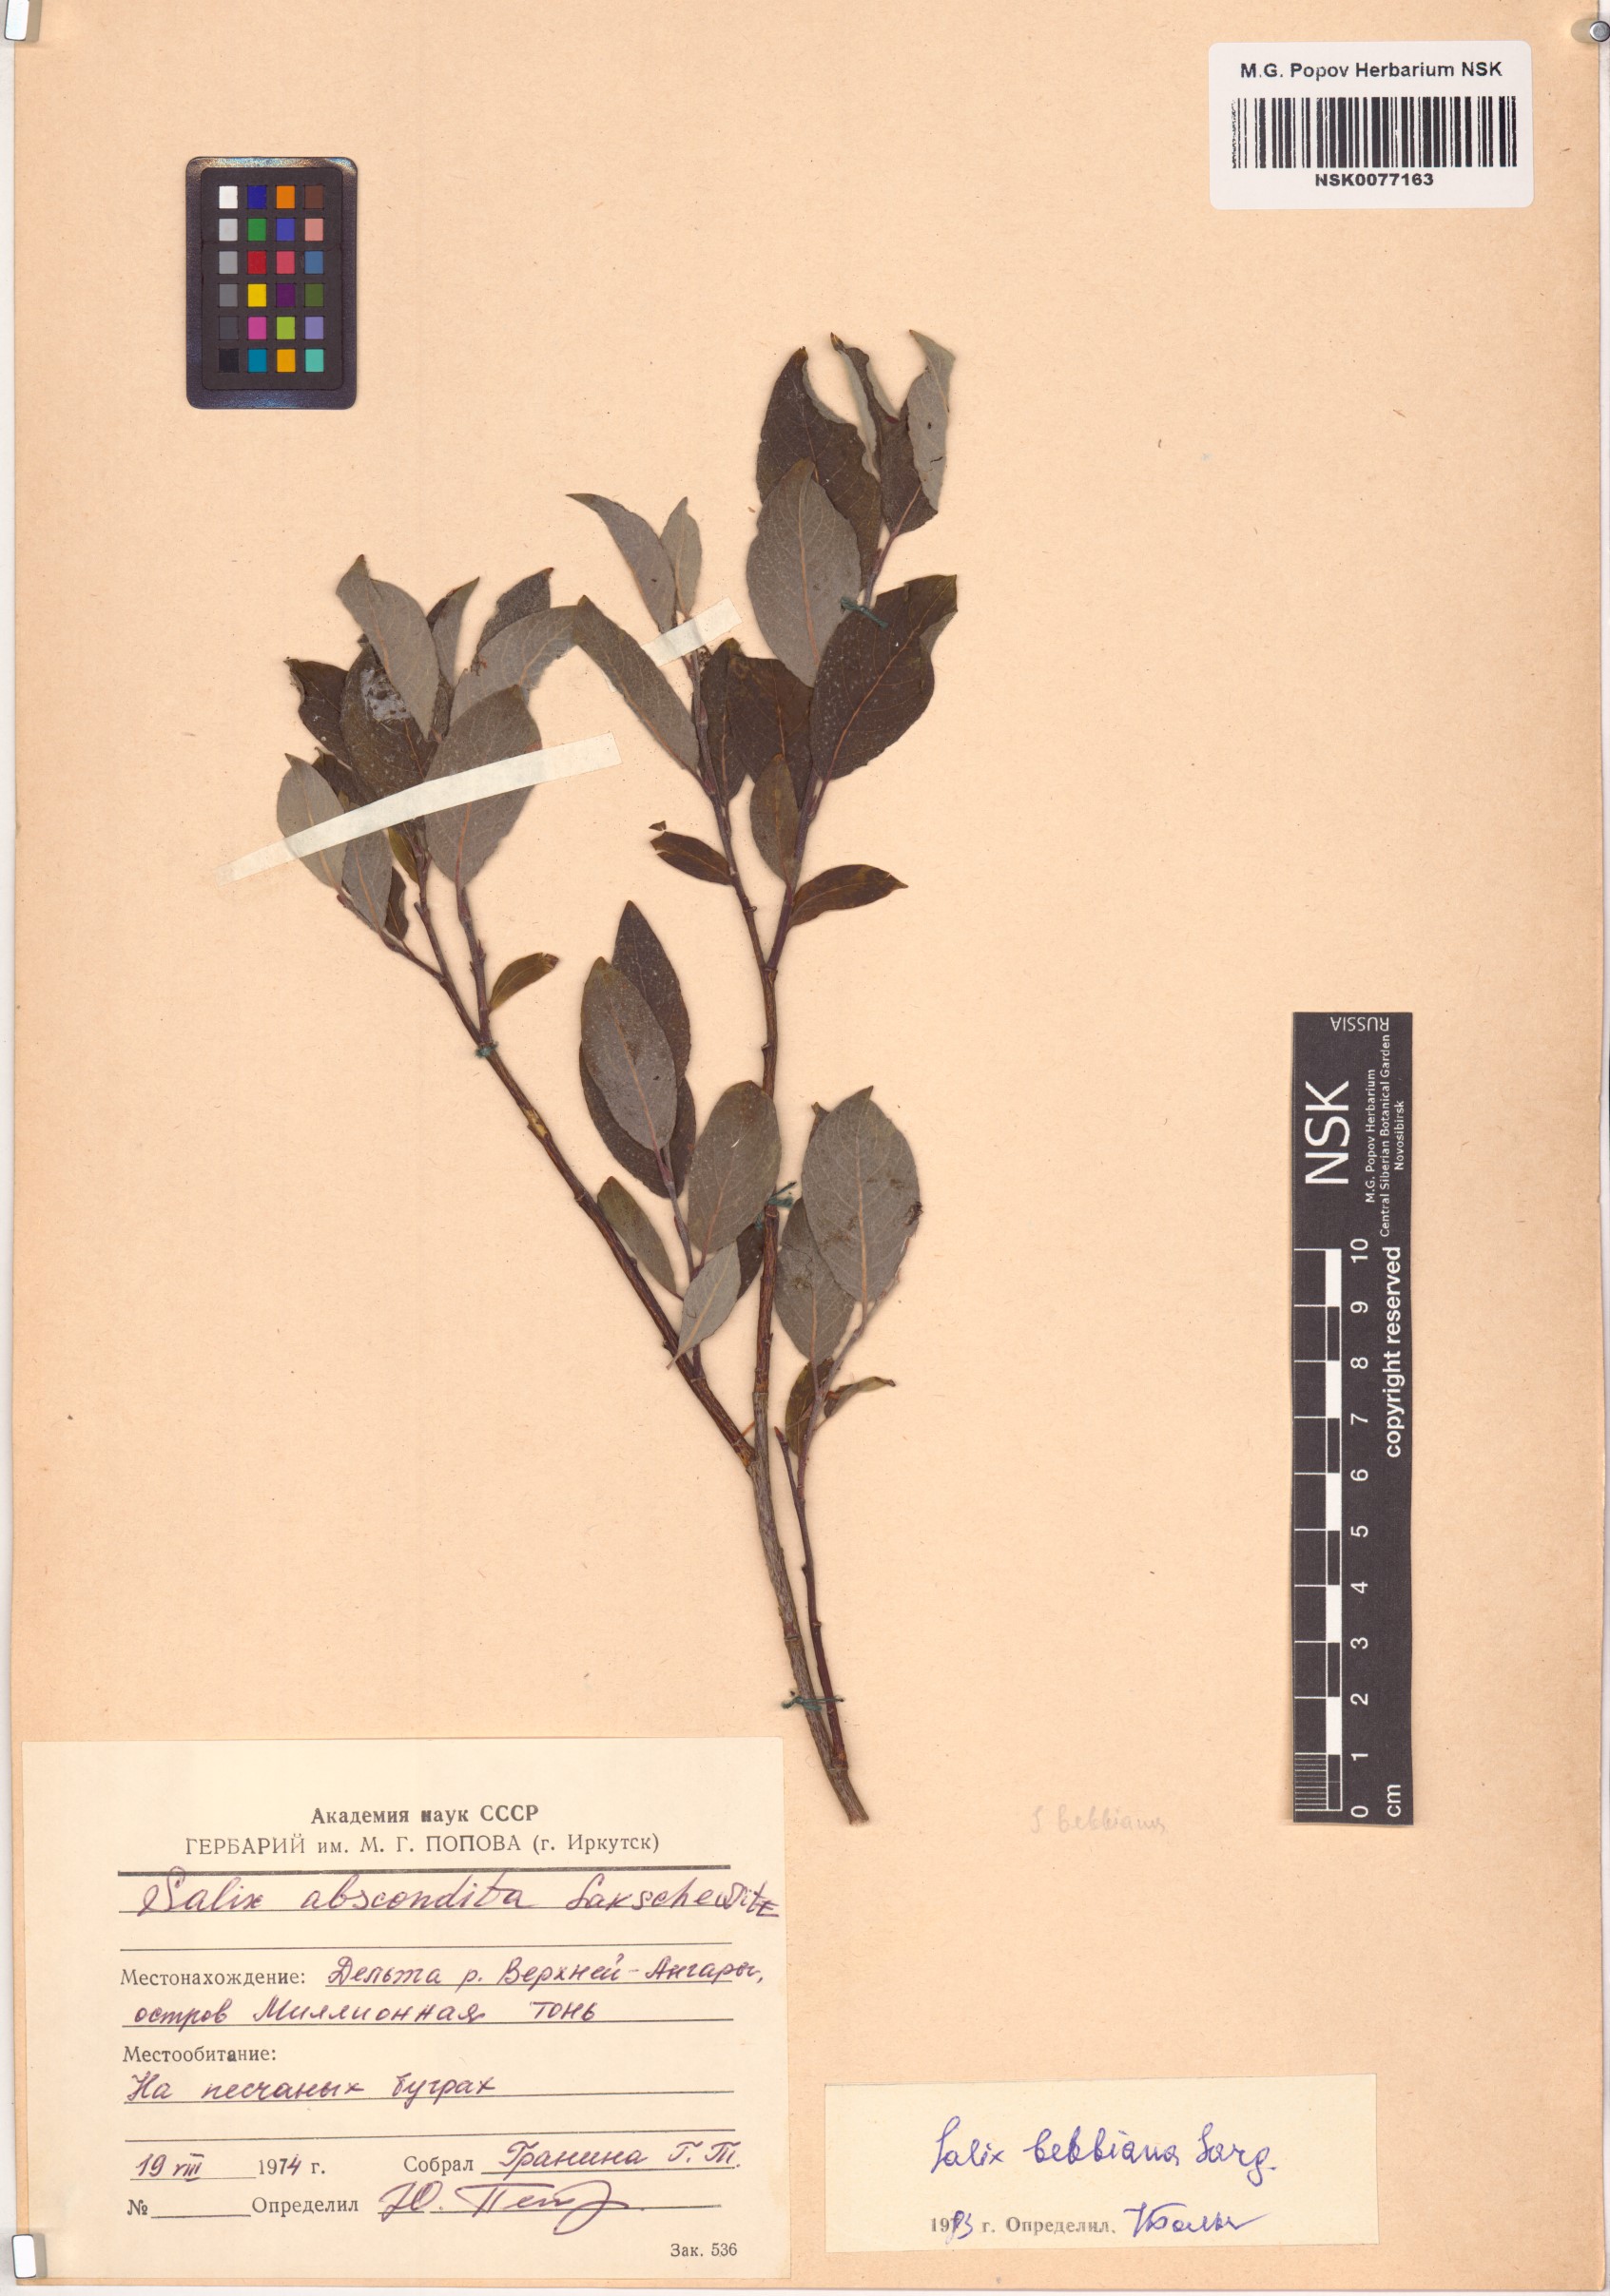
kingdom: Plantae
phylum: Tracheophyta
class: Magnoliopsida
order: Malpighiales
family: Salicaceae
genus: Salix
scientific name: Salix bebbiana
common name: Bebb's willow
